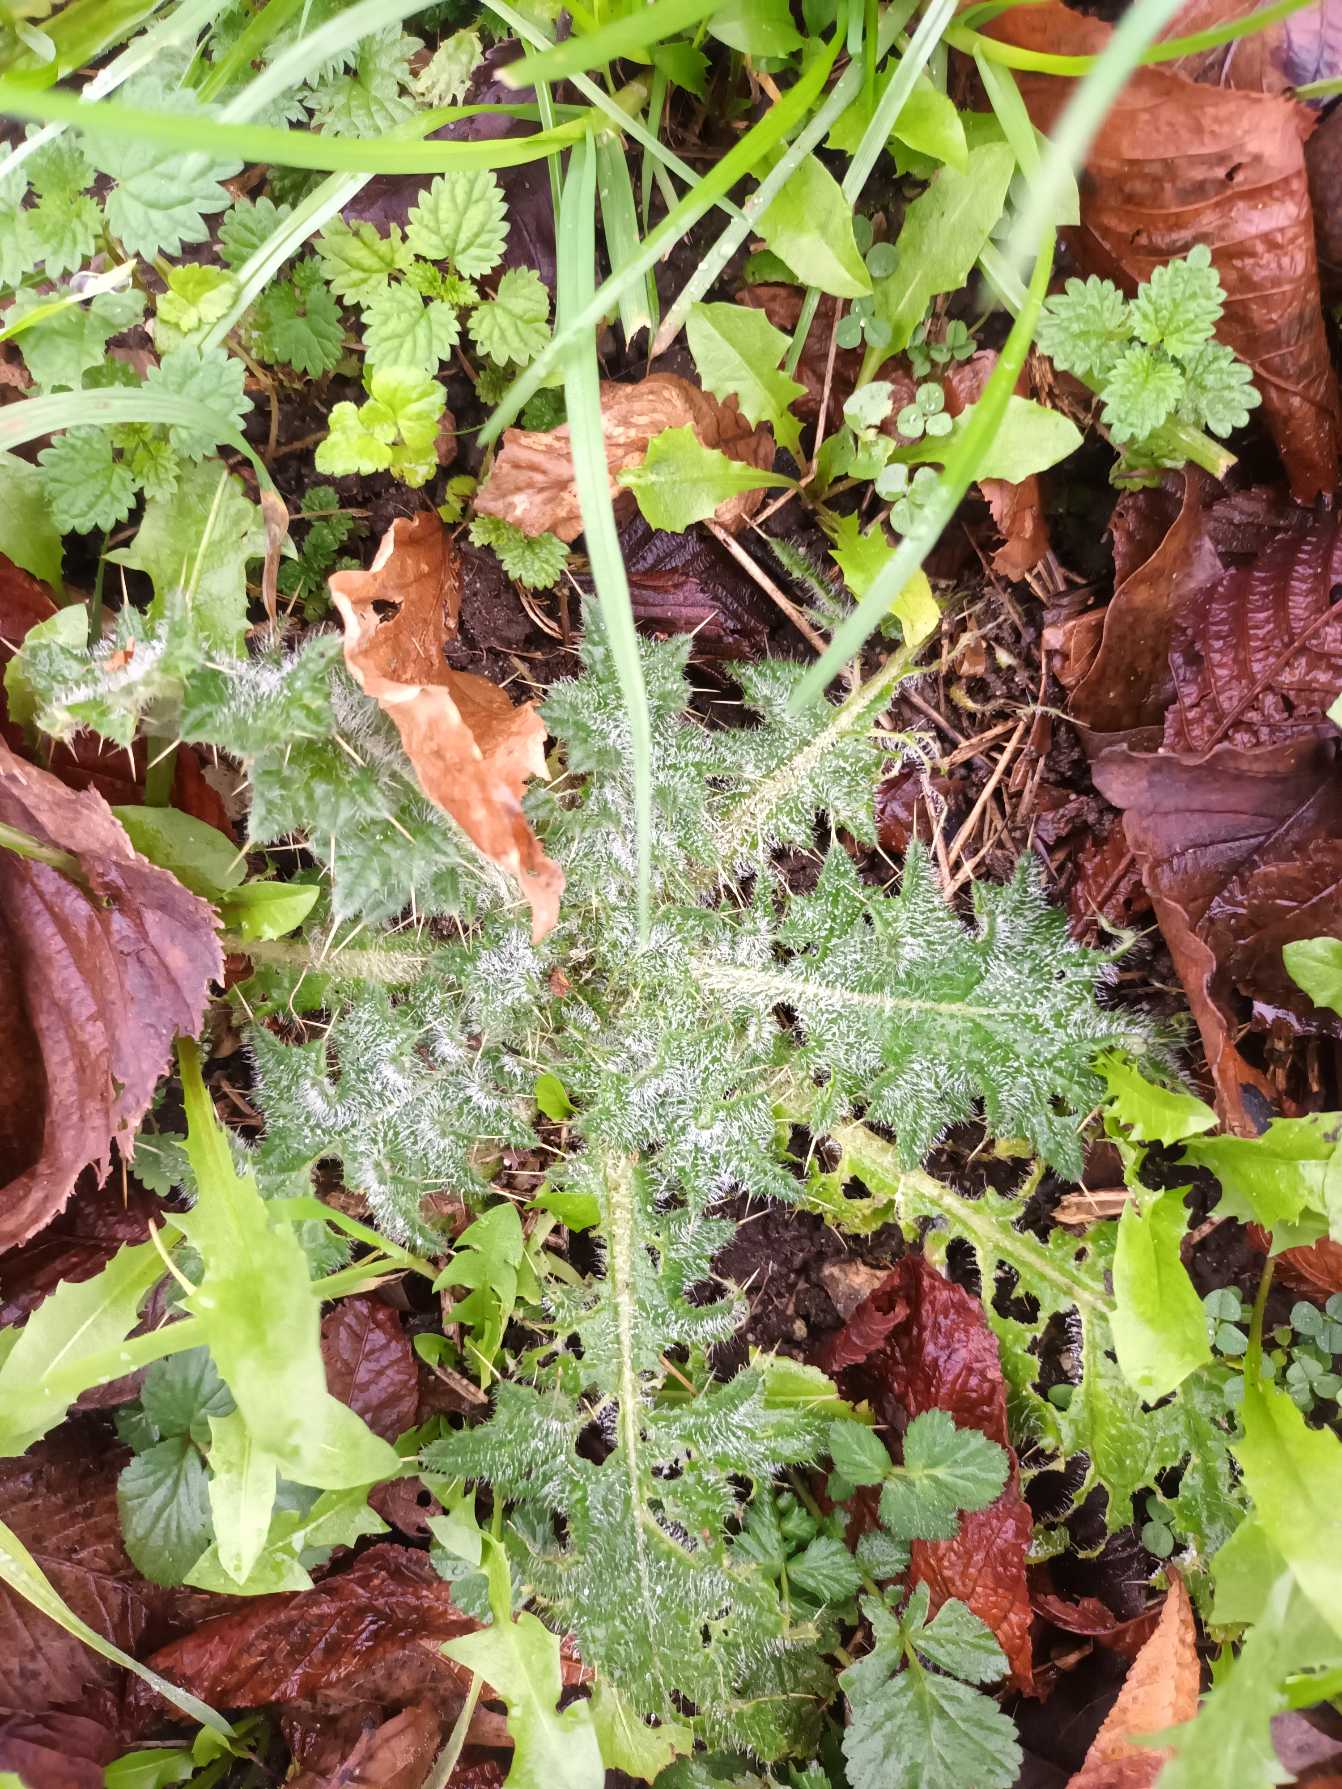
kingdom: Plantae
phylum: Tracheophyta
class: Magnoliopsida
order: Asterales
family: Asteraceae
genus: Cirsium
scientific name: Cirsium vulgare
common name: Horse-tidsel
